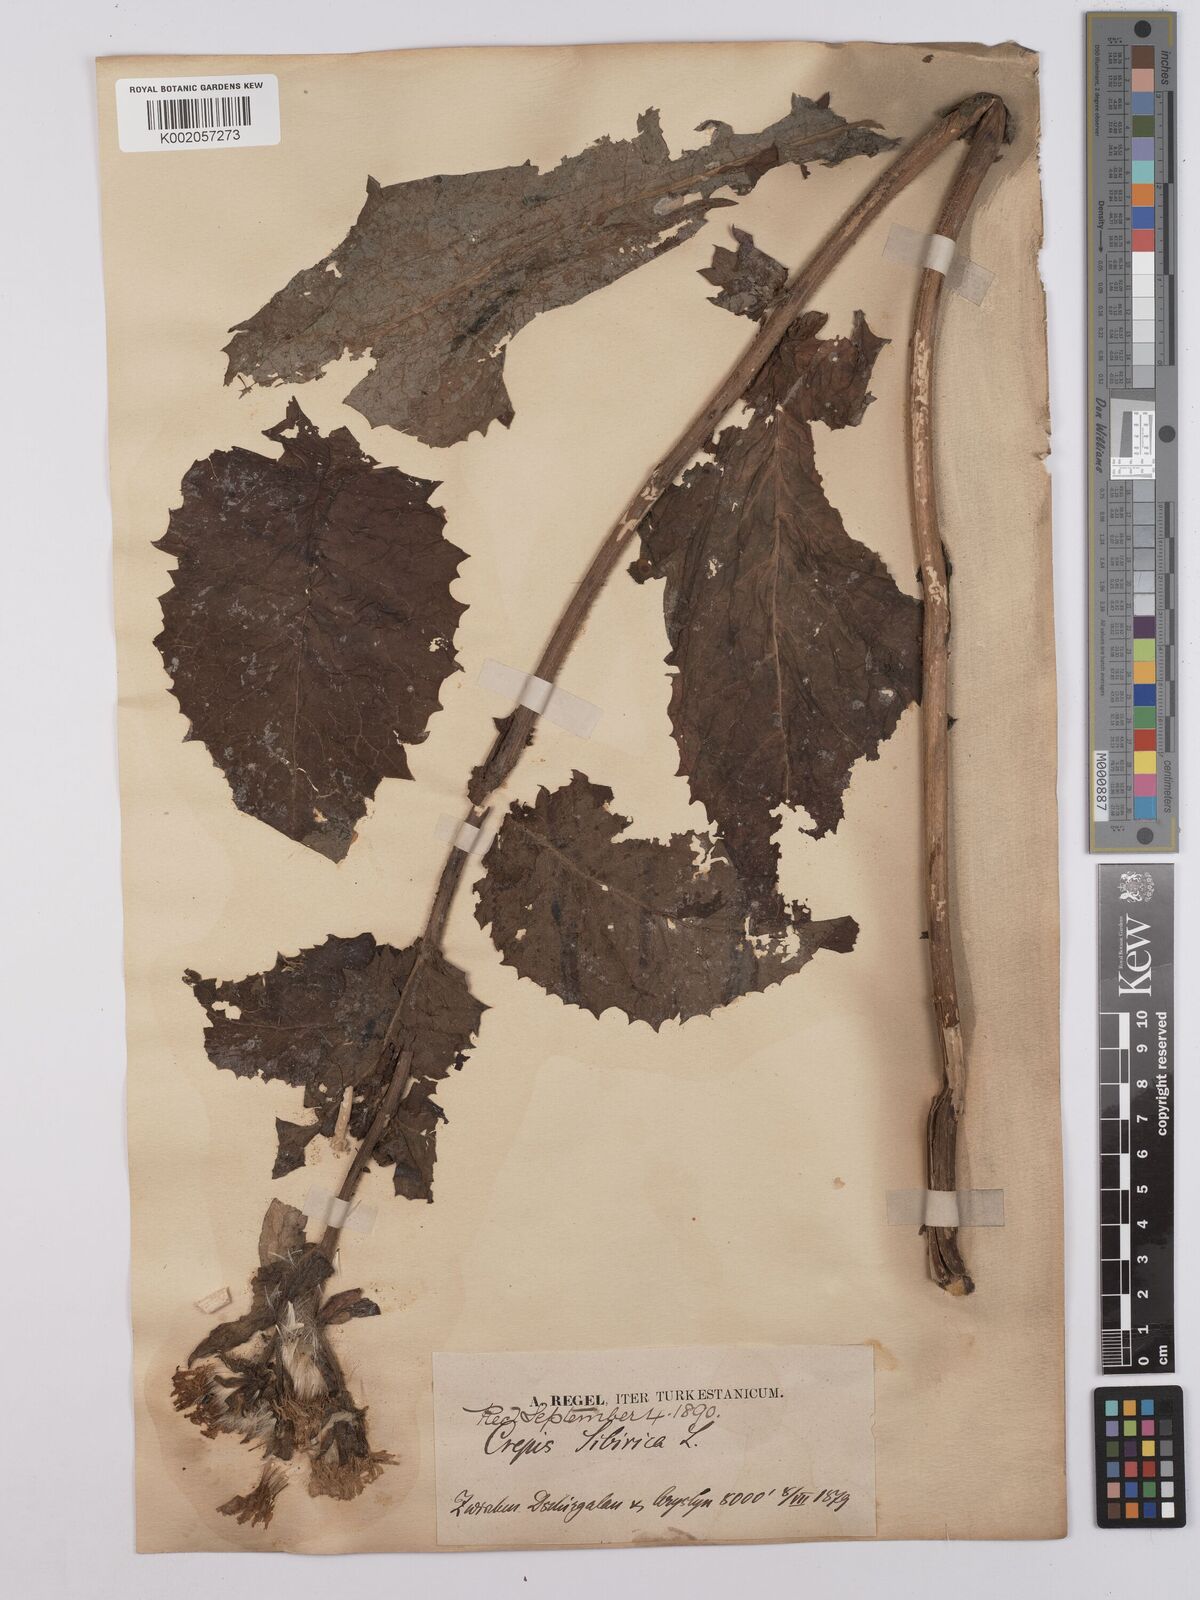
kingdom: Plantae
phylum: Tracheophyta
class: Magnoliopsida
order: Asterales
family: Asteraceae
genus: Crepis
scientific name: Crepis sibirica
